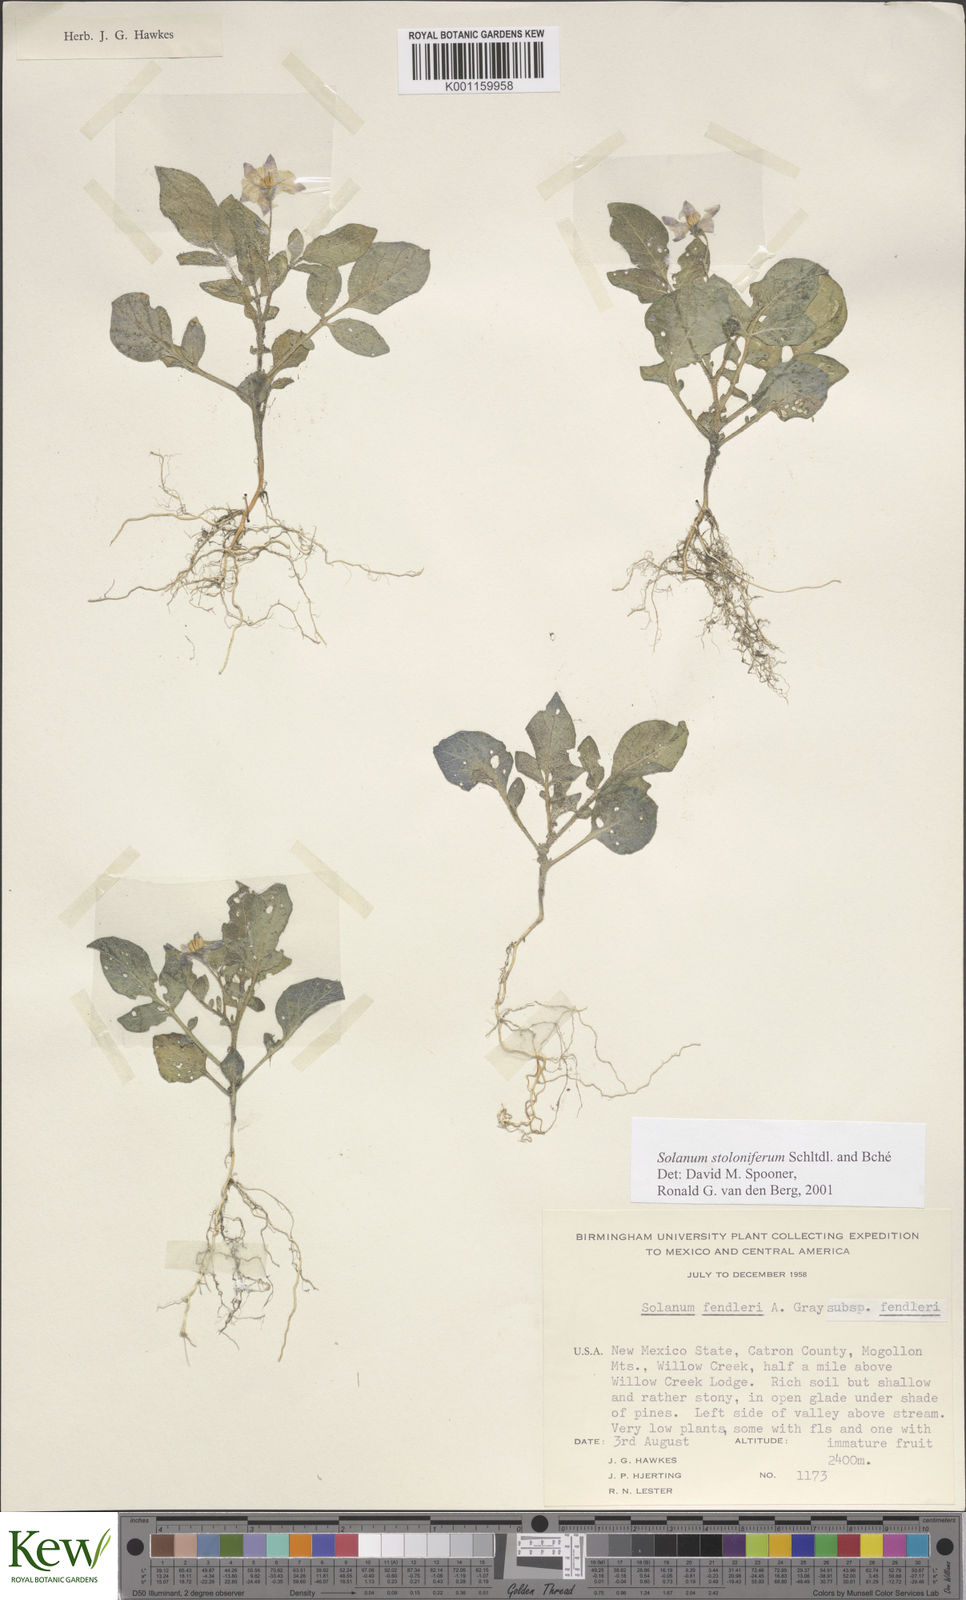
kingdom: Plantae
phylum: Tracheophyta
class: Magnoliopsida
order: Solanales
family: Solanaceae
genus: Solanum
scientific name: Solanum stoloniferum
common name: Fendler's nighshade
